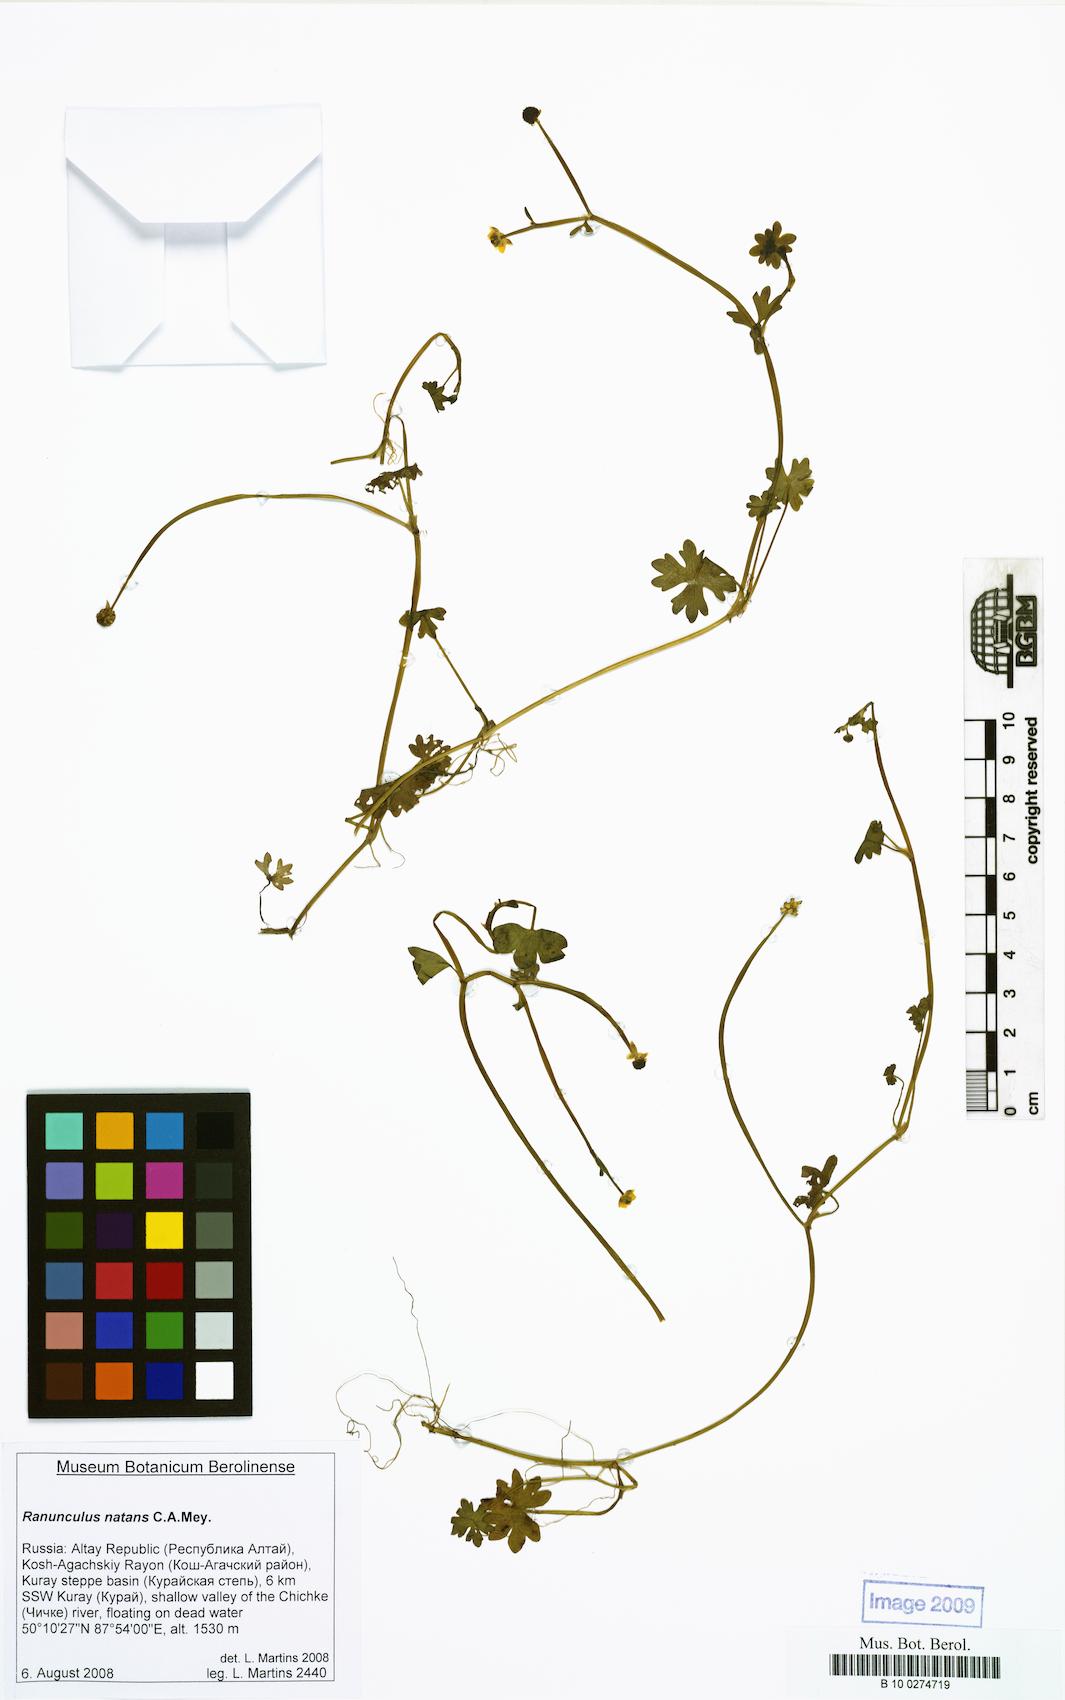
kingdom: Plantae
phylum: Tracheophyta
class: Magnoliopsida
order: Ranunculales
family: Ranunculaceae
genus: Ranunculus
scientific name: Ranunculus natans
